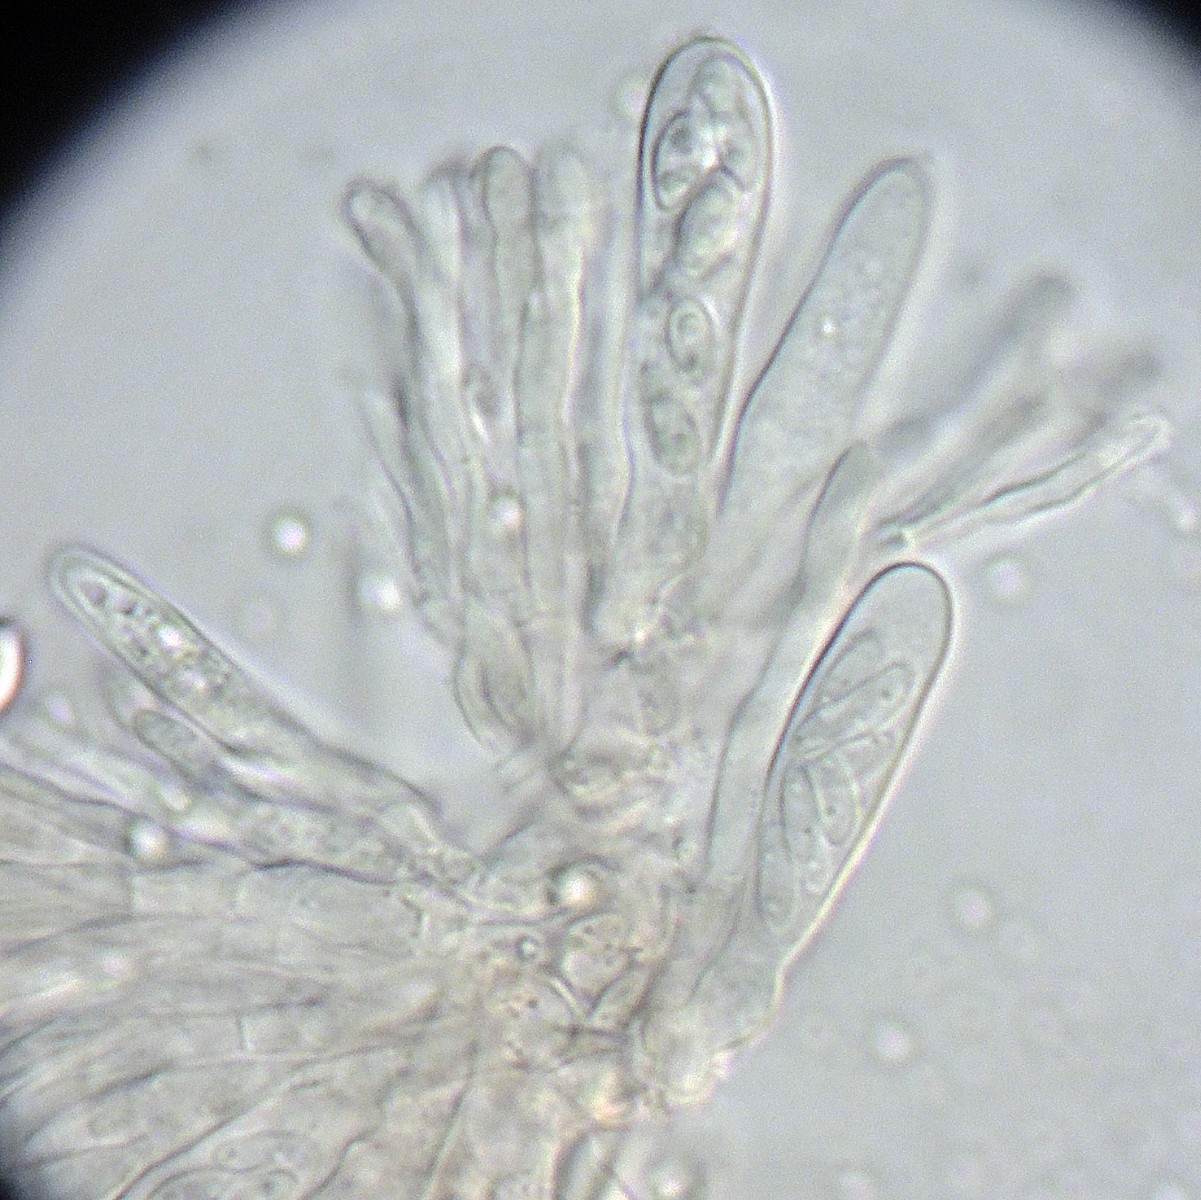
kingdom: Fungi
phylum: Ascomycota
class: Leotiomycetes
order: Helotiales
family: Cordieritidaceae
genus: Unguiculariopsis
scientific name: Unguiculariopsis thallophila
